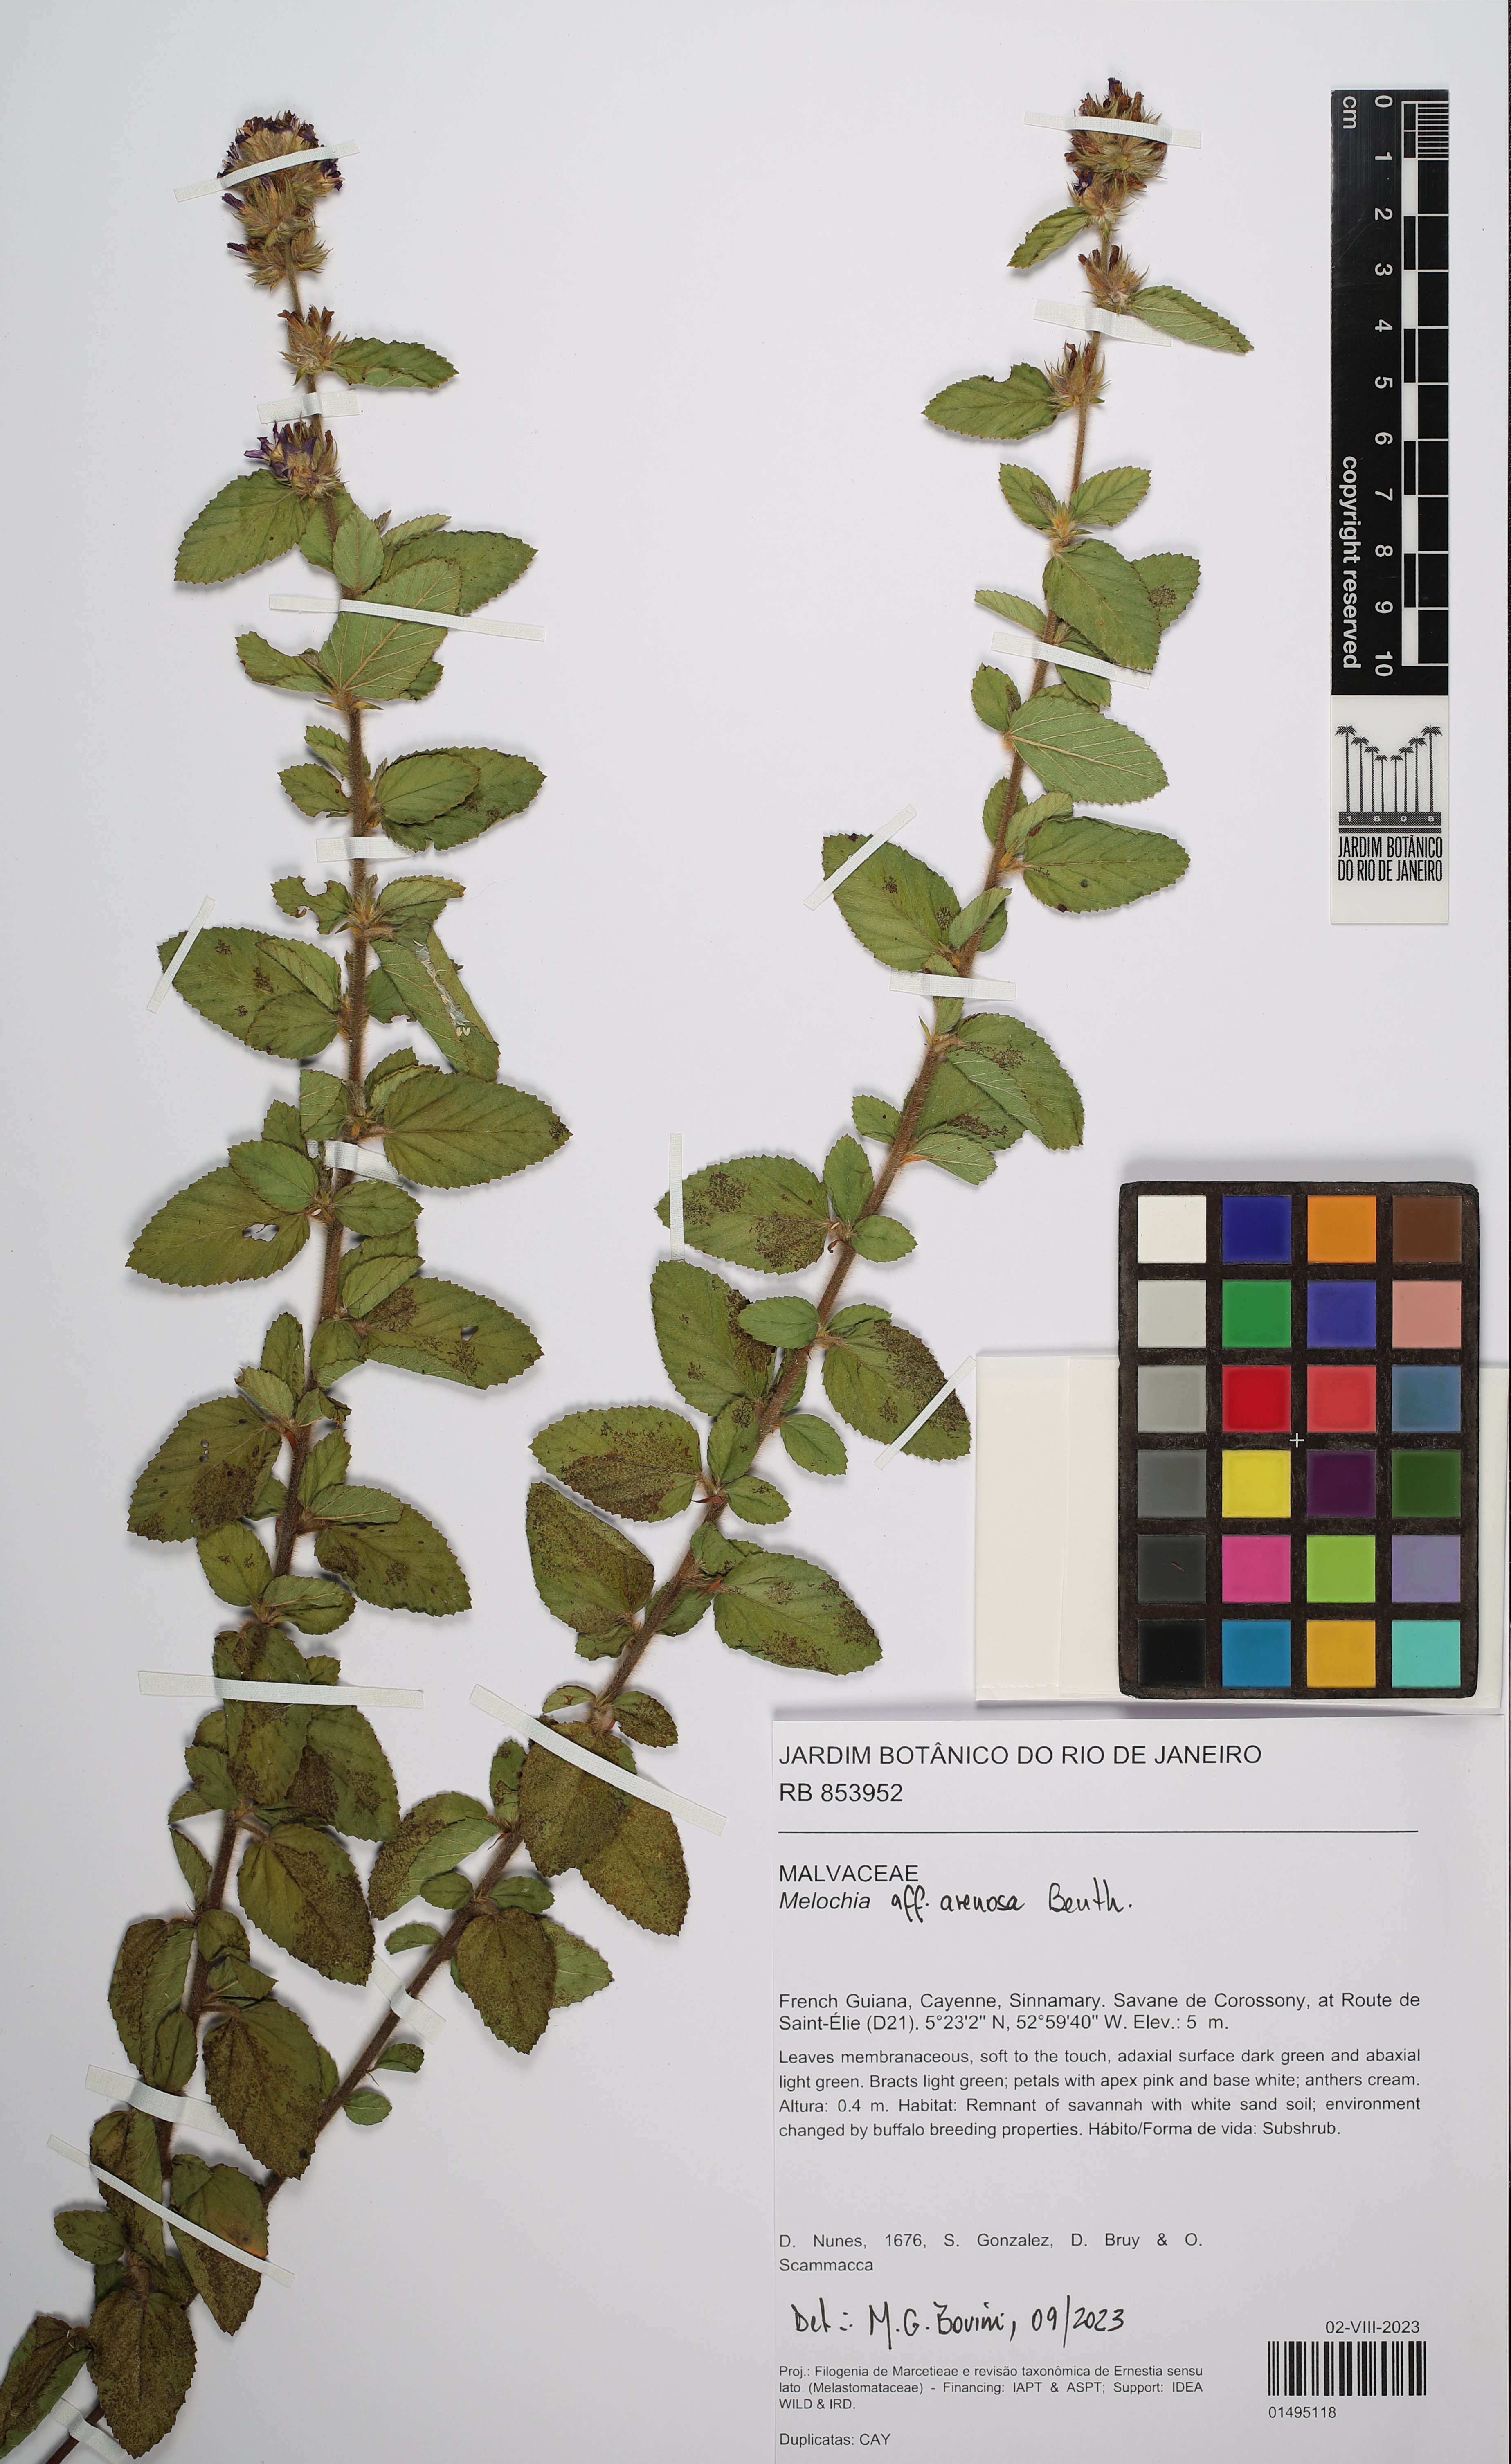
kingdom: Plantae
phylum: Tracheophyta
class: Magnoliopsida
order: Malvales
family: Malvaceae
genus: Melochia
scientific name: Melochia arenosa
